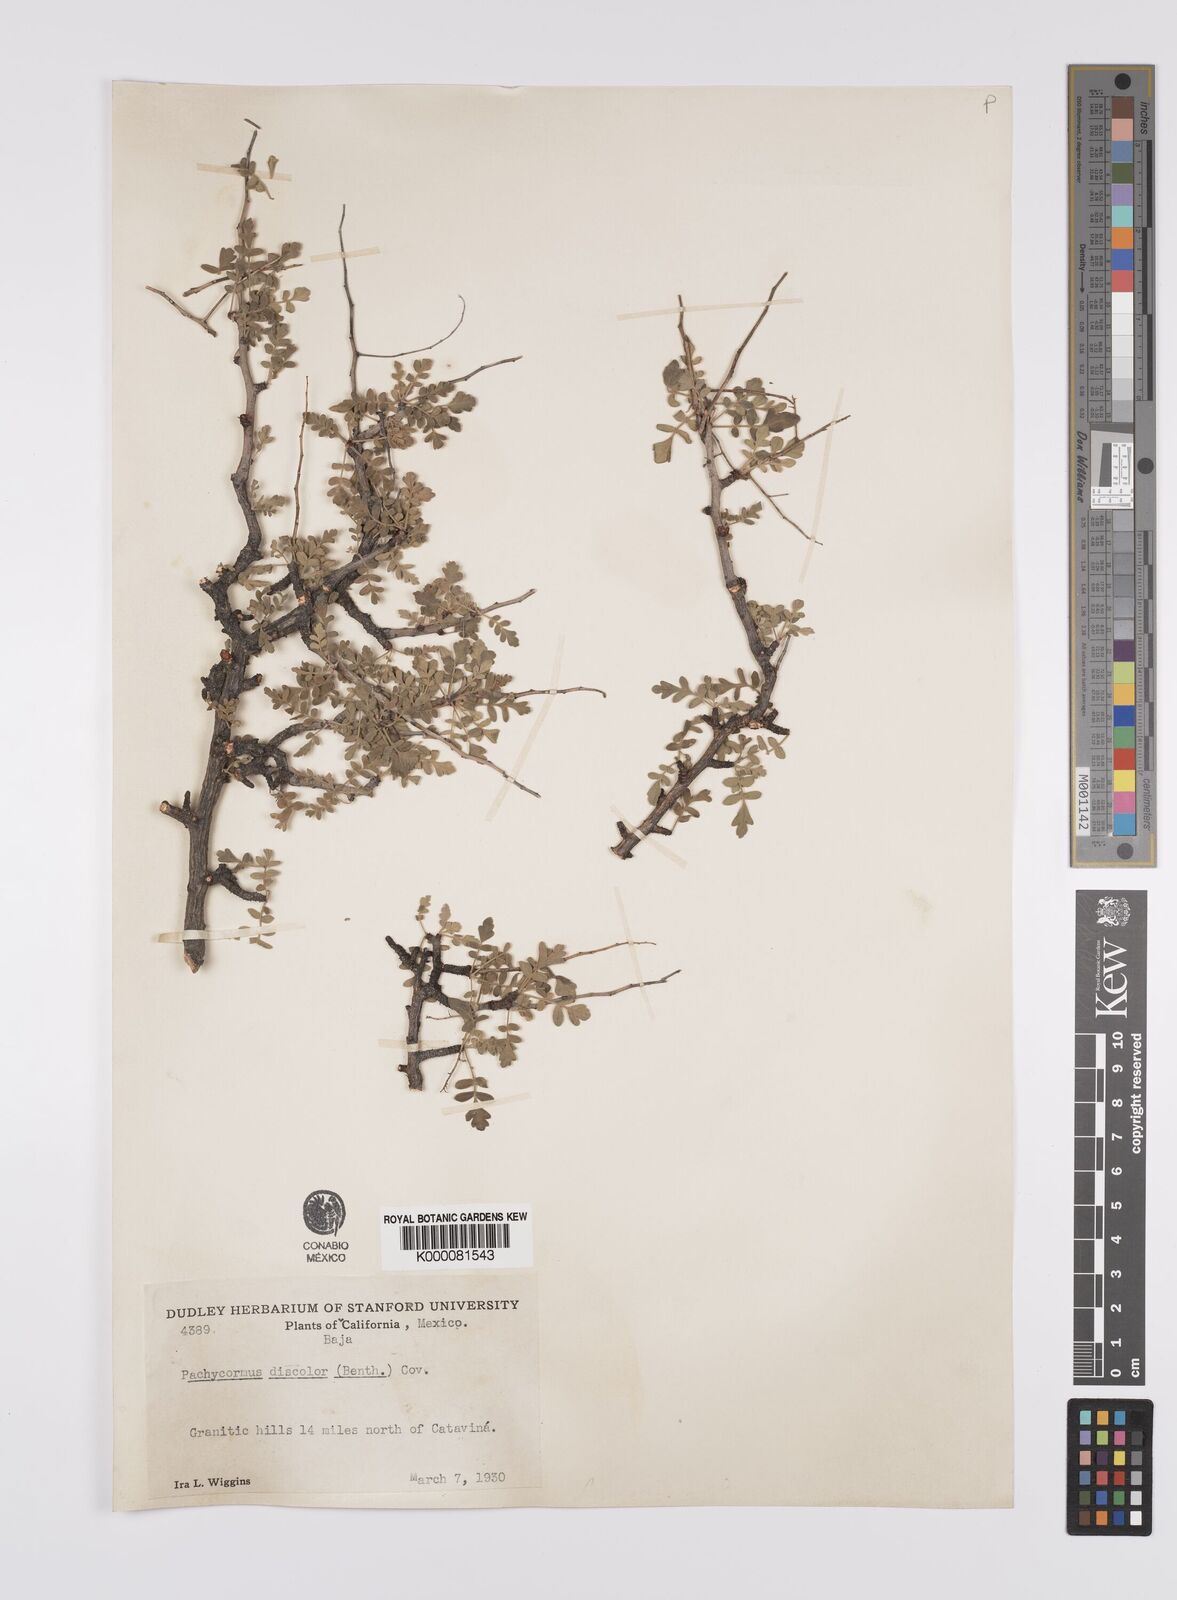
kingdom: Plantae
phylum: Tracheophyta
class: Magnoliopsida
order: Sapindales
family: Anacardiaceae
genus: Pachycormus
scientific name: Pachycormus
